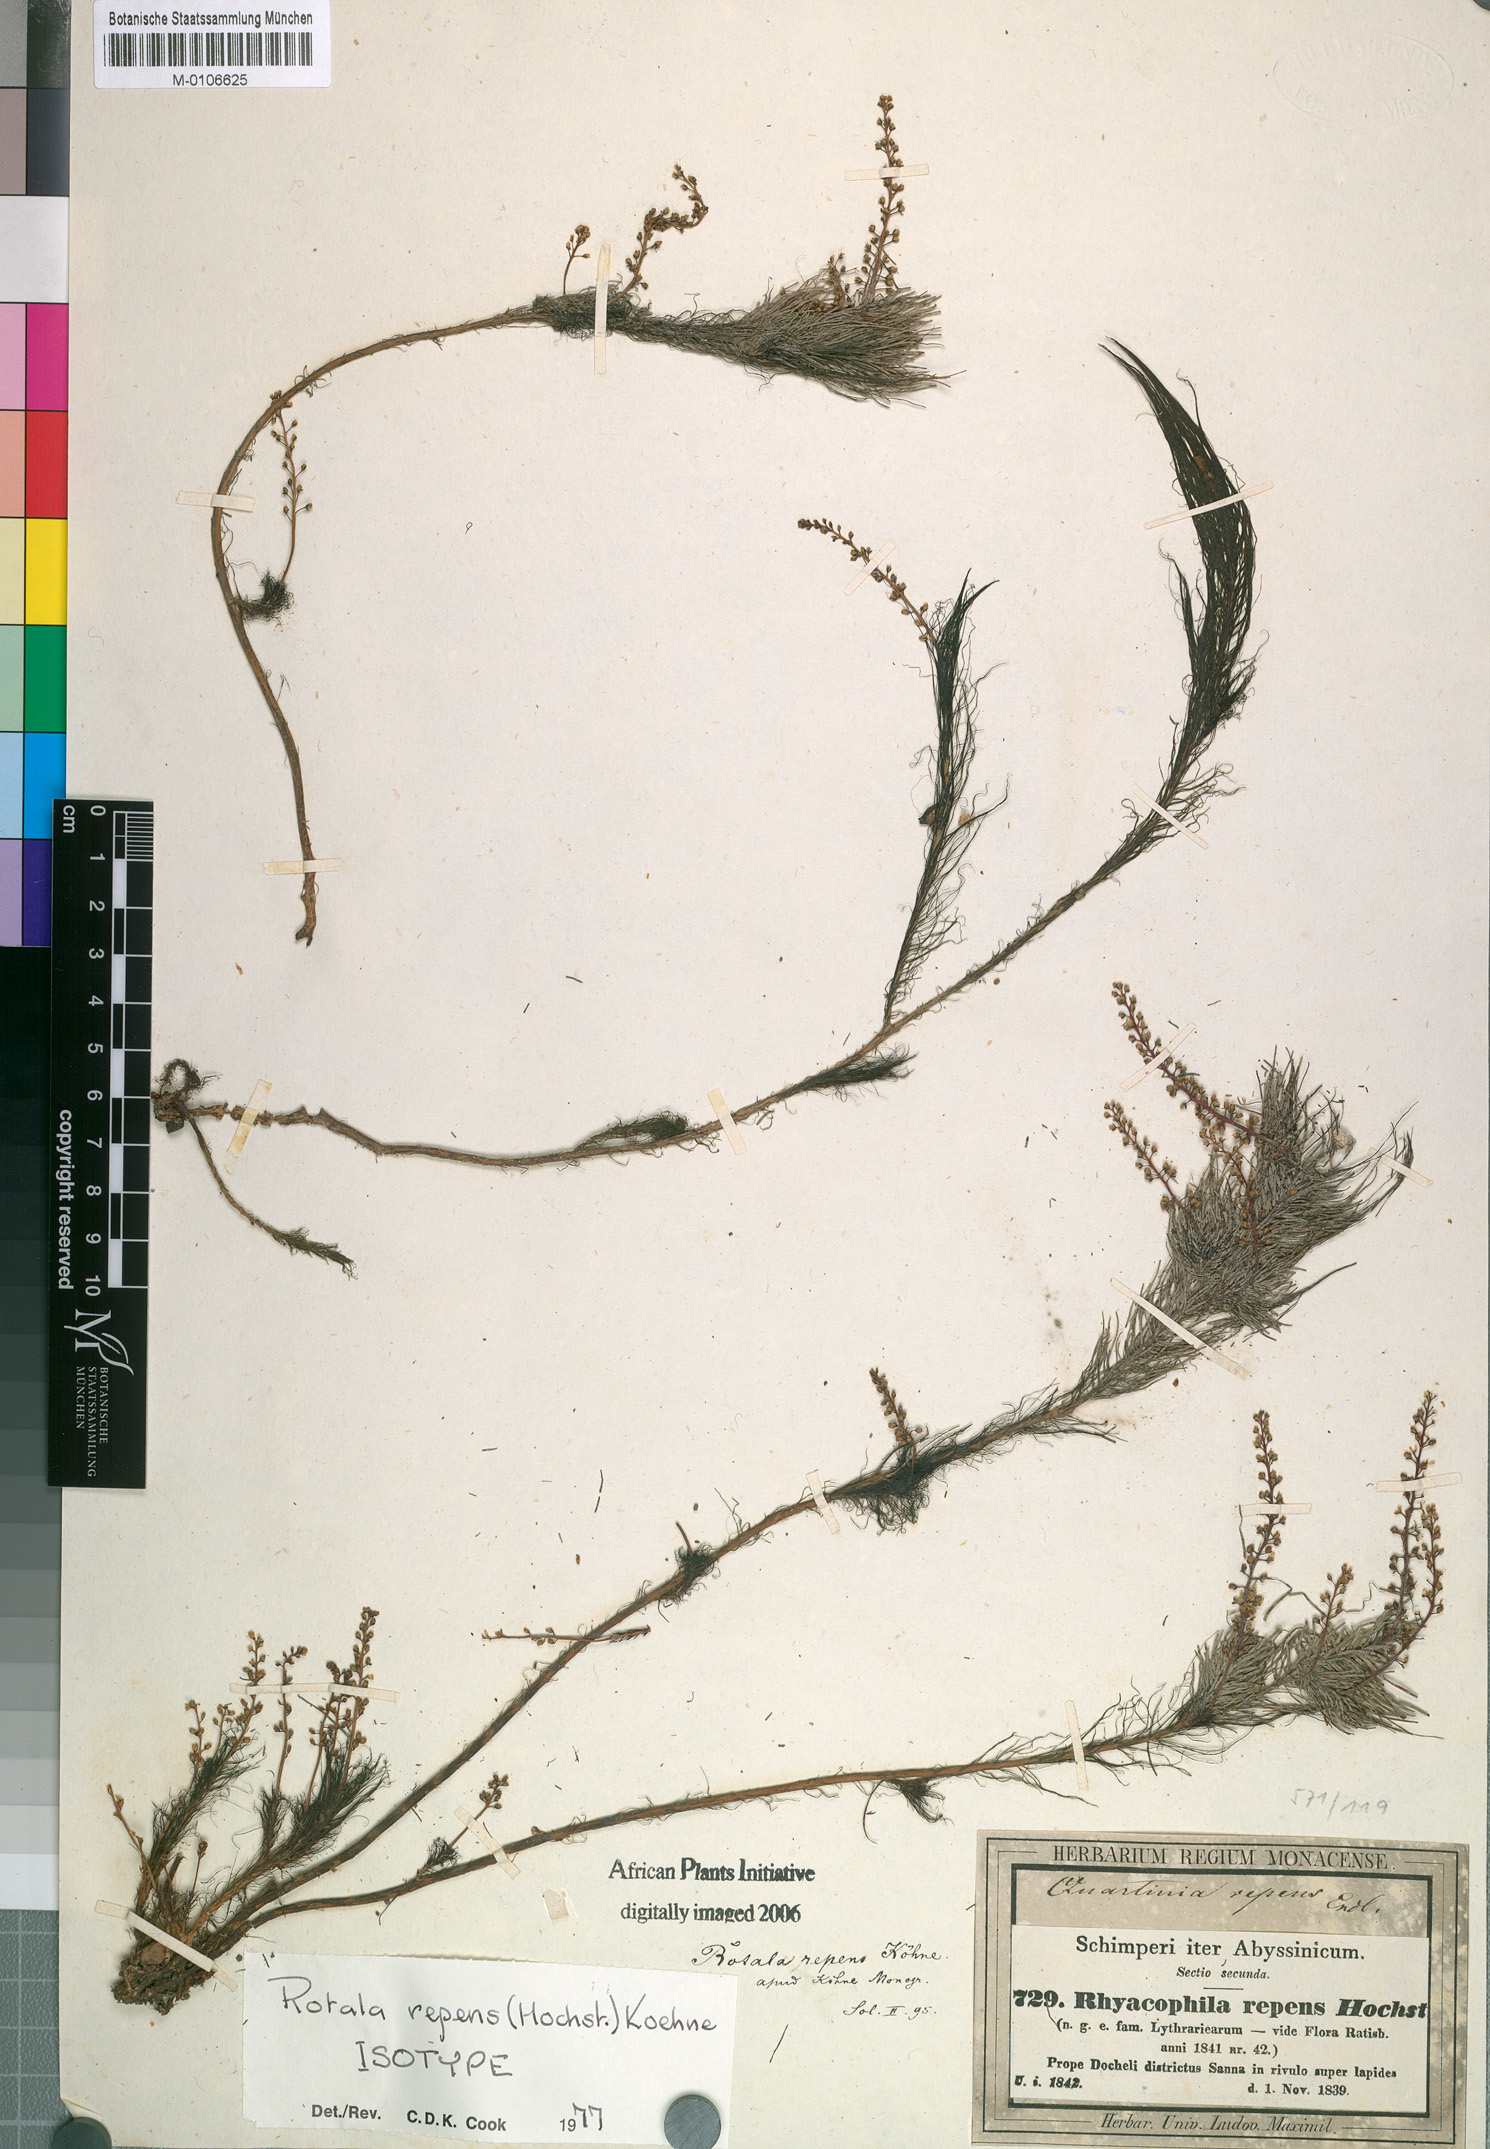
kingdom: Plantae
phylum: Tracheophyta
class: Magnoliopsida
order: Myrtales
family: Lythraceae
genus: Rotala
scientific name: Rotala repens
